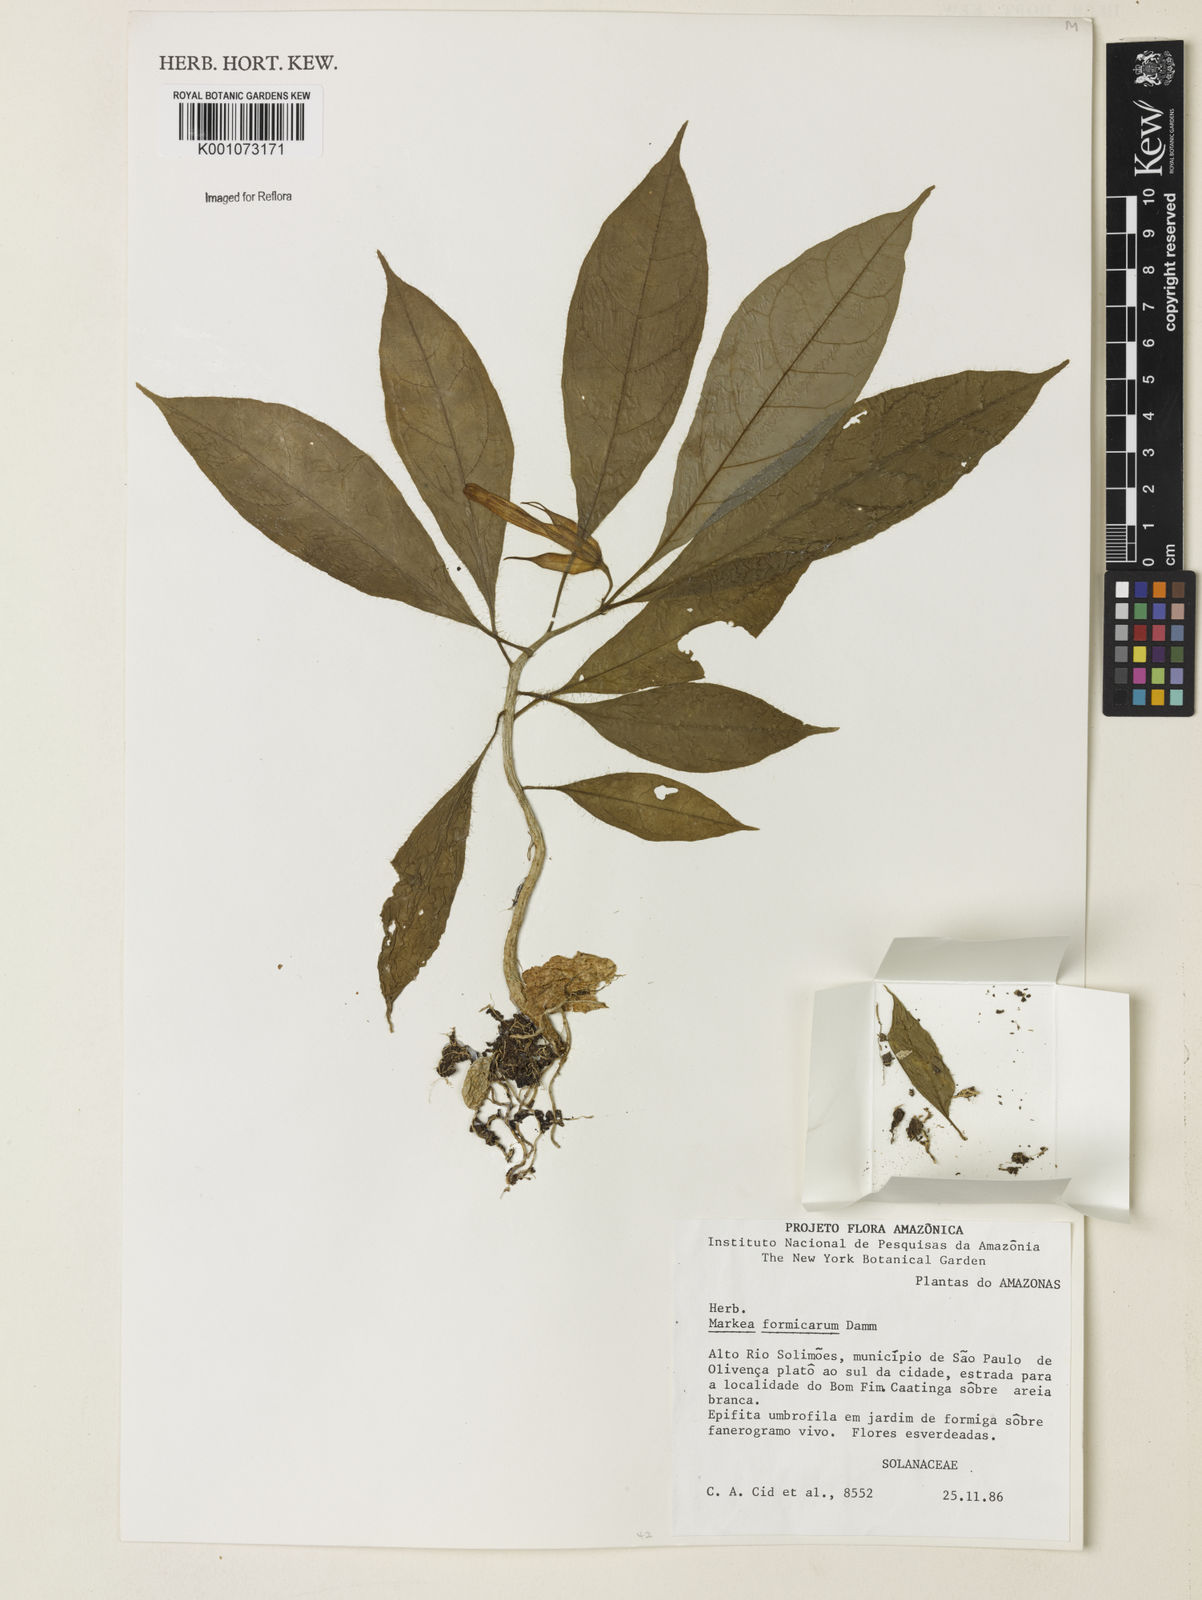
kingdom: Plantae
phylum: Tracheophyta
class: Magnoliopsida
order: Solanales
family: Solanaceae
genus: Markea
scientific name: Markea formicarum
